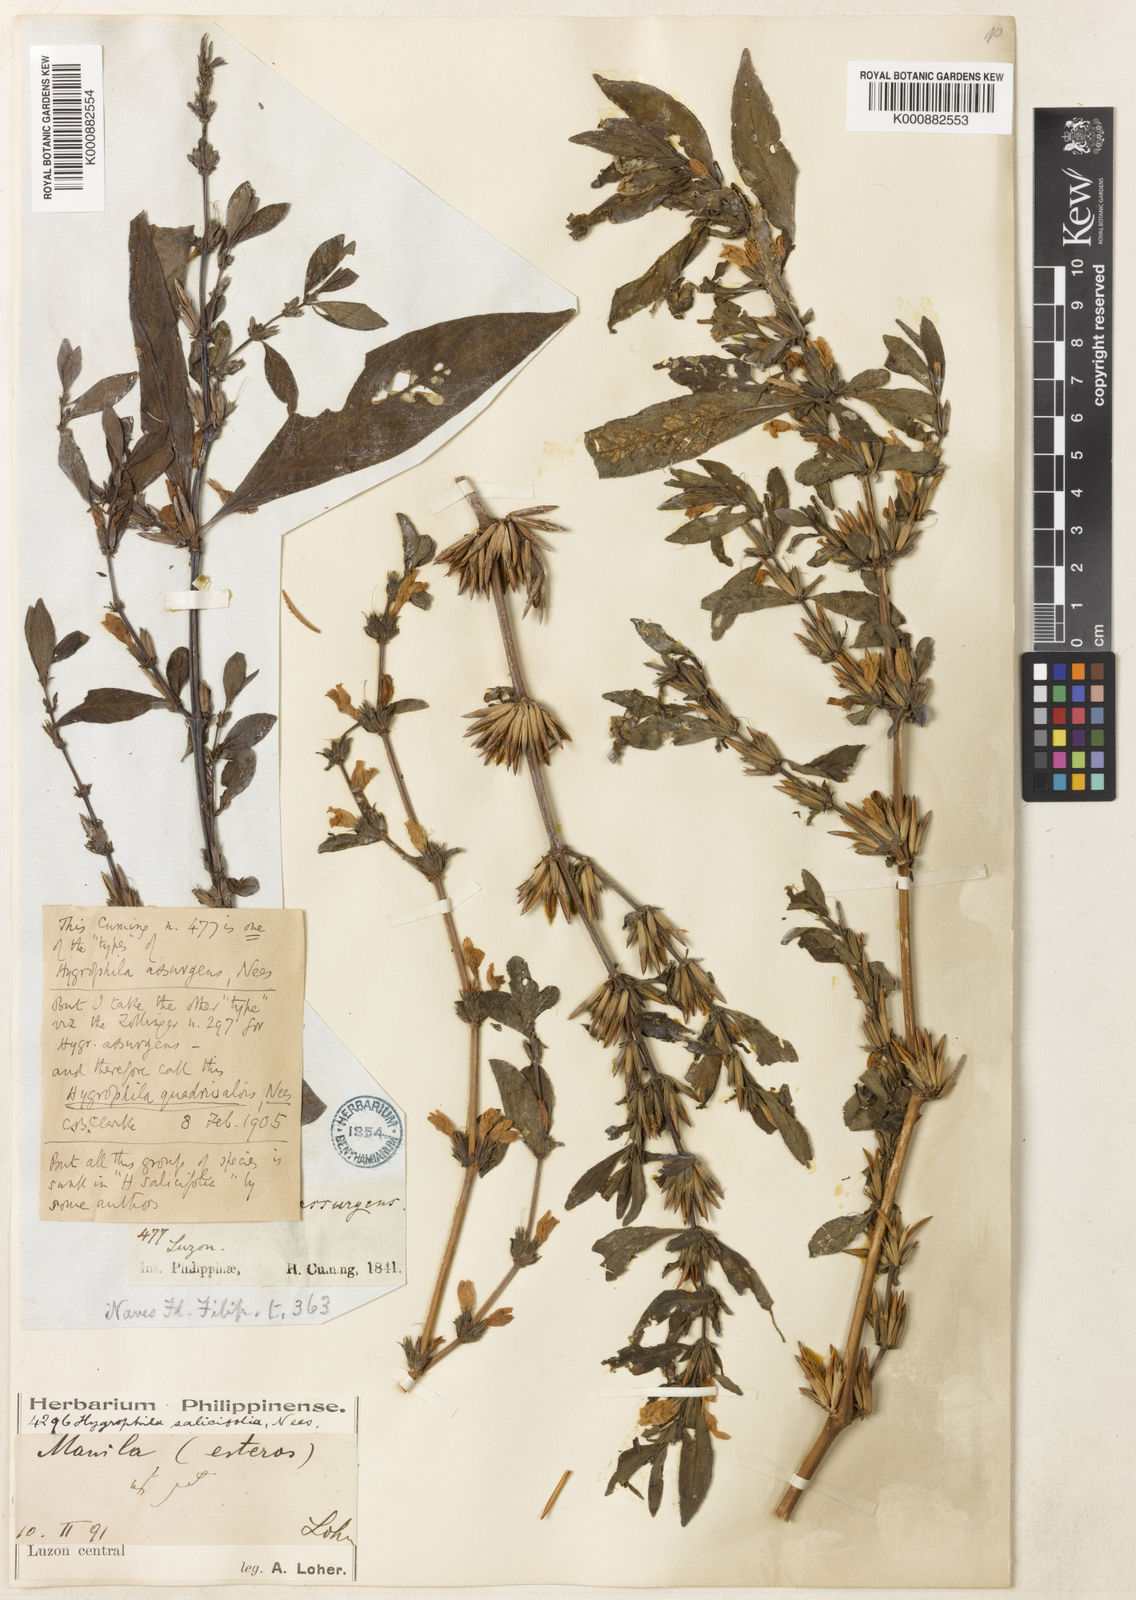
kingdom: Plantae
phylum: Tracheophyta
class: Magnoliopsida
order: Lamiales
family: Acanthaceae
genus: Hygrophila
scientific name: Hygrophila ringens
